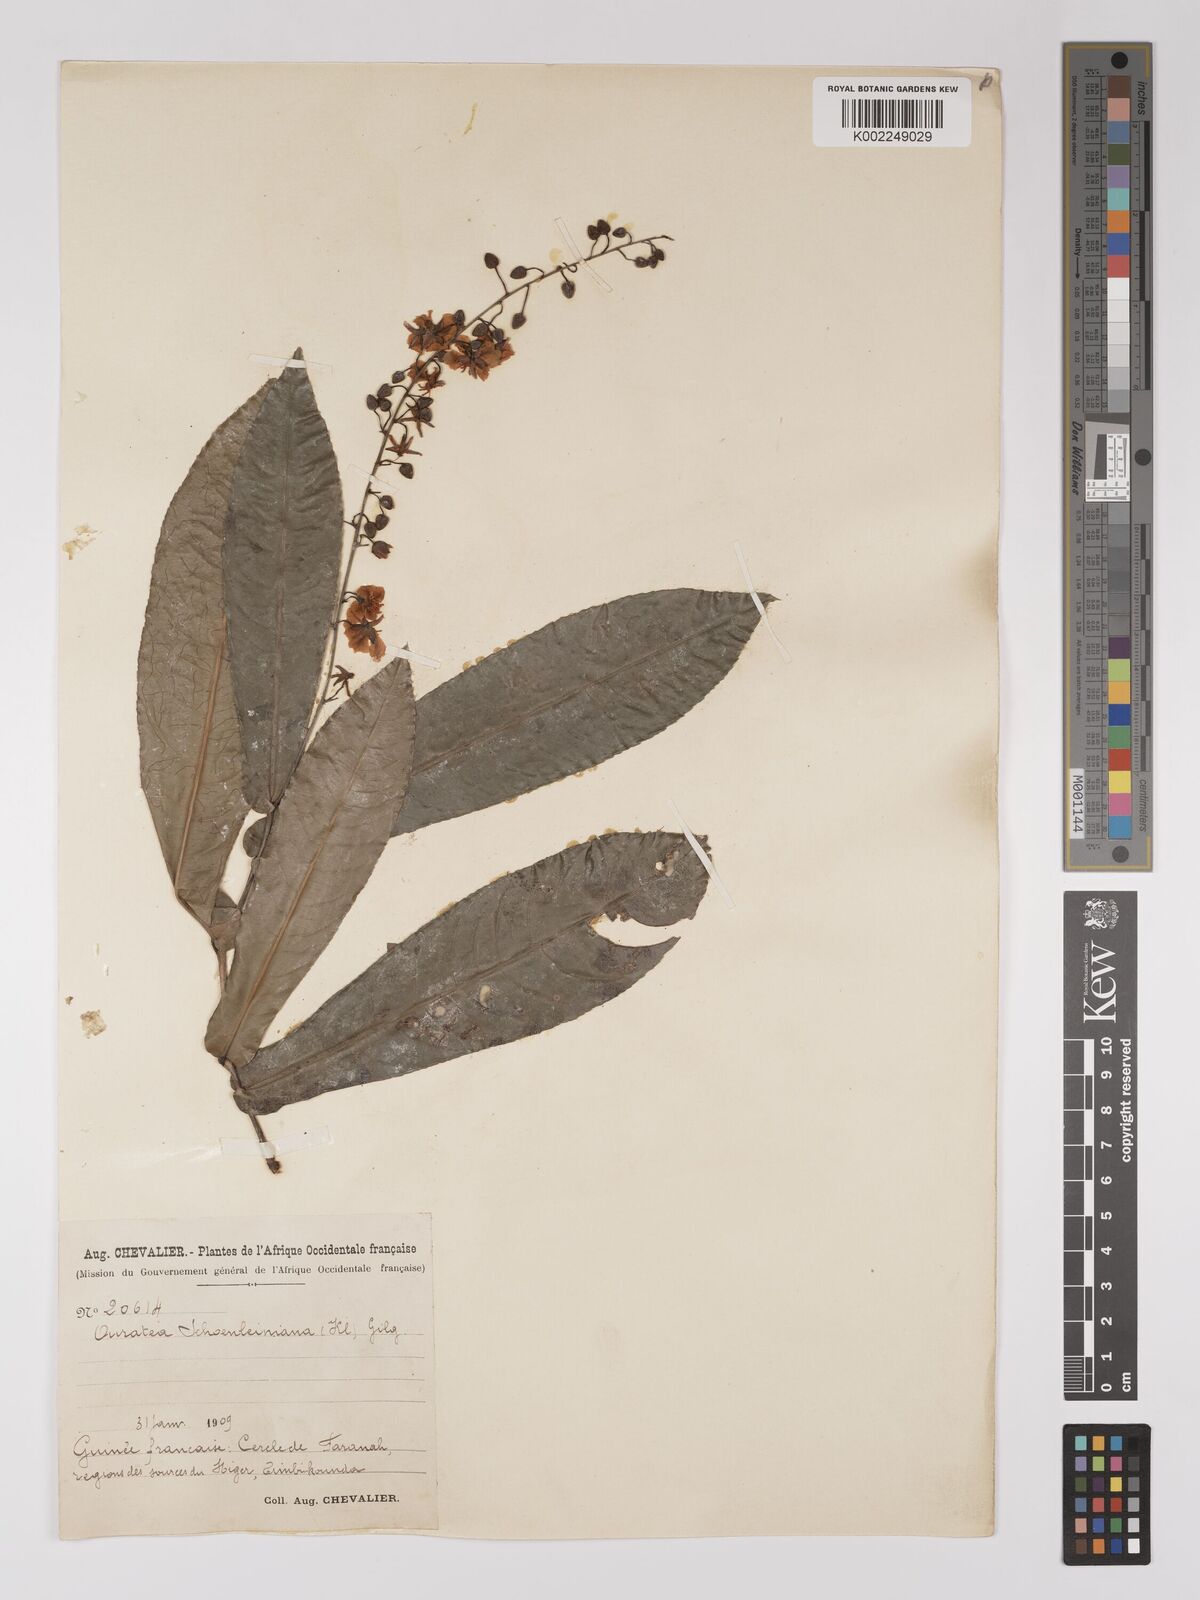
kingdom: Plantae
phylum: Tracheophyta
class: Magnoliopsida
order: Malpighiales
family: Ochnaceae
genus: Campylospermum
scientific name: Campylospermum schoenleinianum
